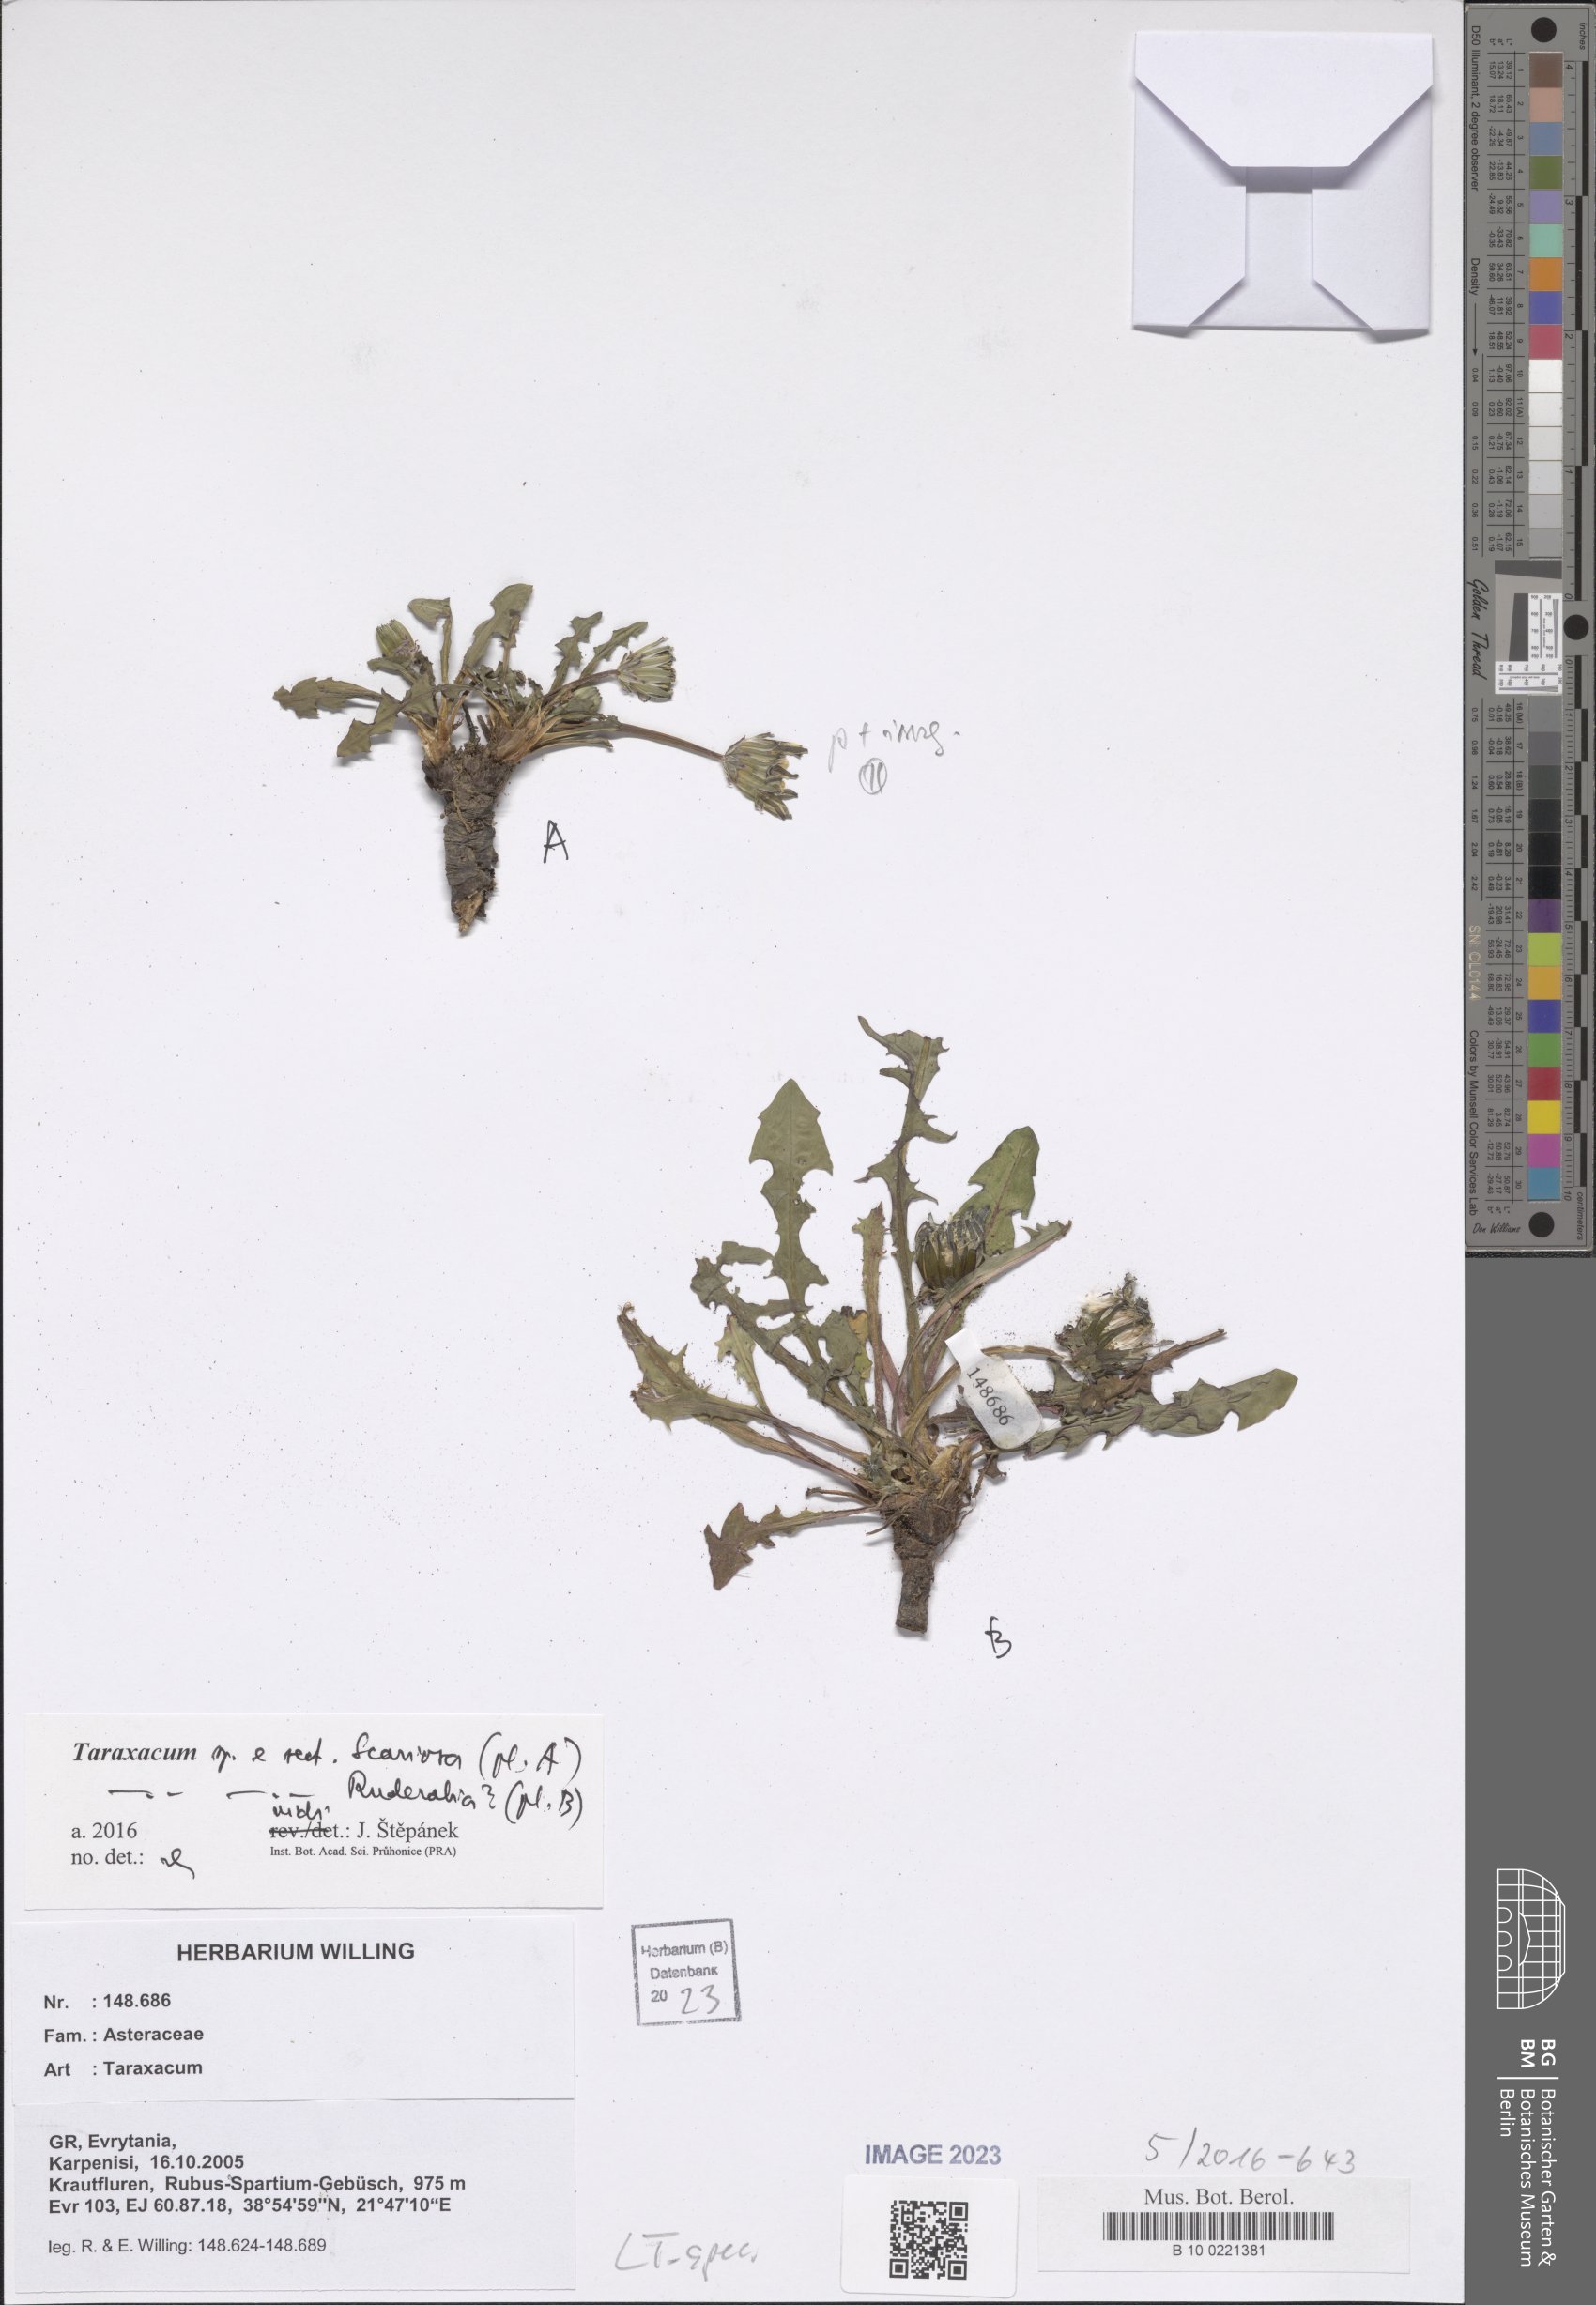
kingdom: Plantae
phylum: Tracheophyta
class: Magnoliopsida
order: Asterales
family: Asteraceae
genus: Taraxacum
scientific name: Taraxacum
